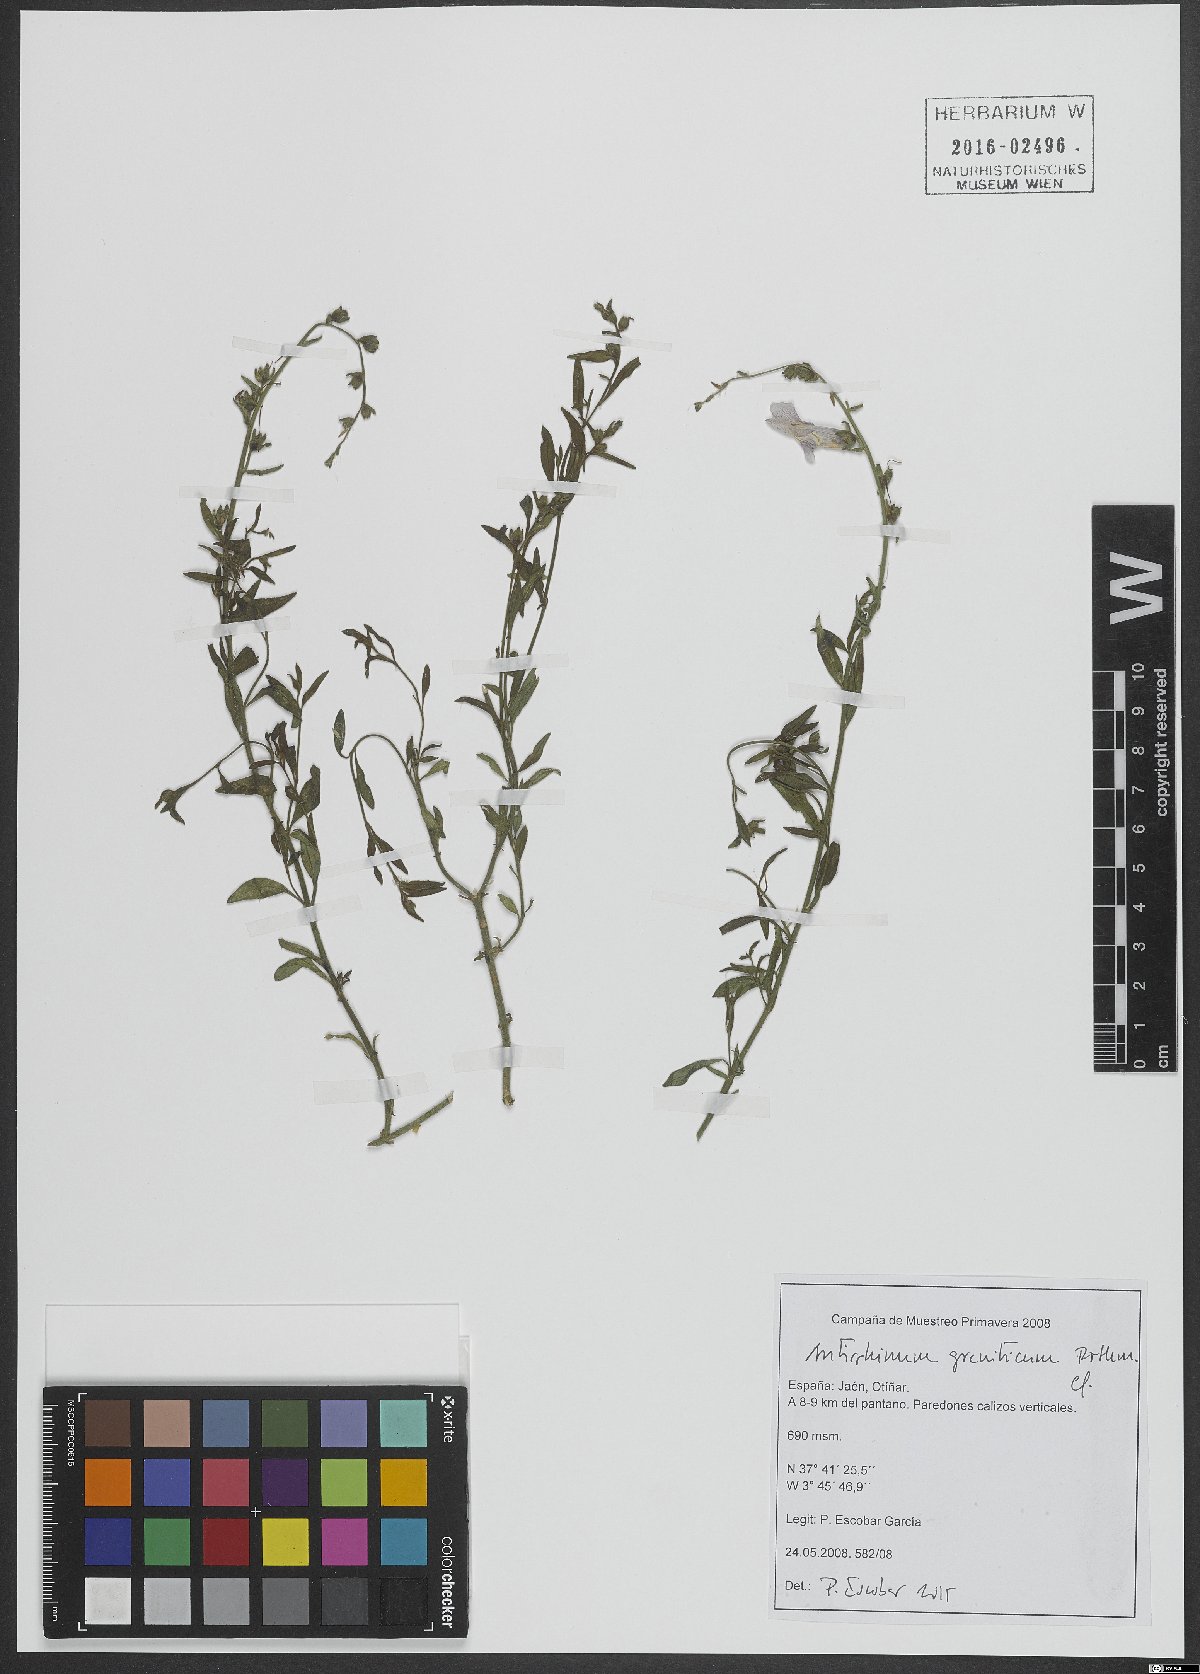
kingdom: Plantae
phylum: Tracheophyta
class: Magnoliopsida
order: Lamiales
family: Plantaginaceae
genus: Antirrhinum
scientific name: Antirrhinum graniticum
